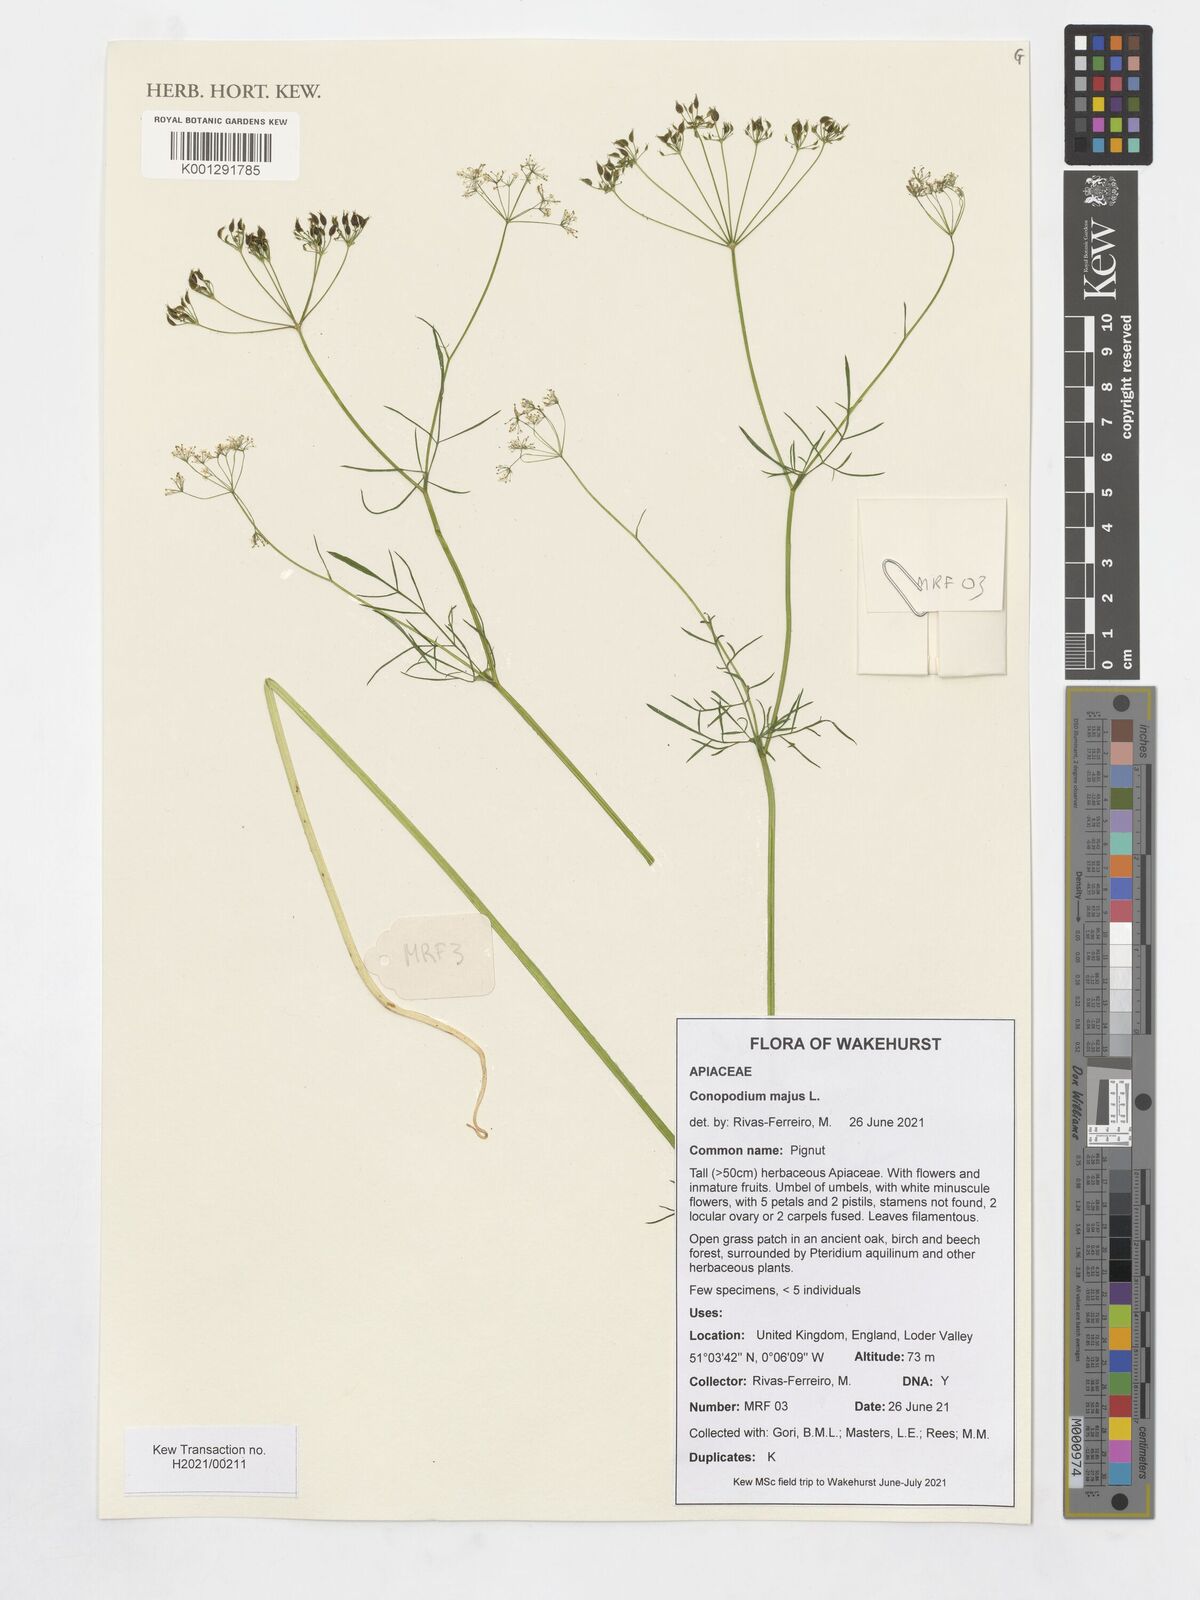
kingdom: Plantae
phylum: Tracheophyta
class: Magnoliopsida
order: Apiales
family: Apiaceae
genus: Conopodium
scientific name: Conopodium
